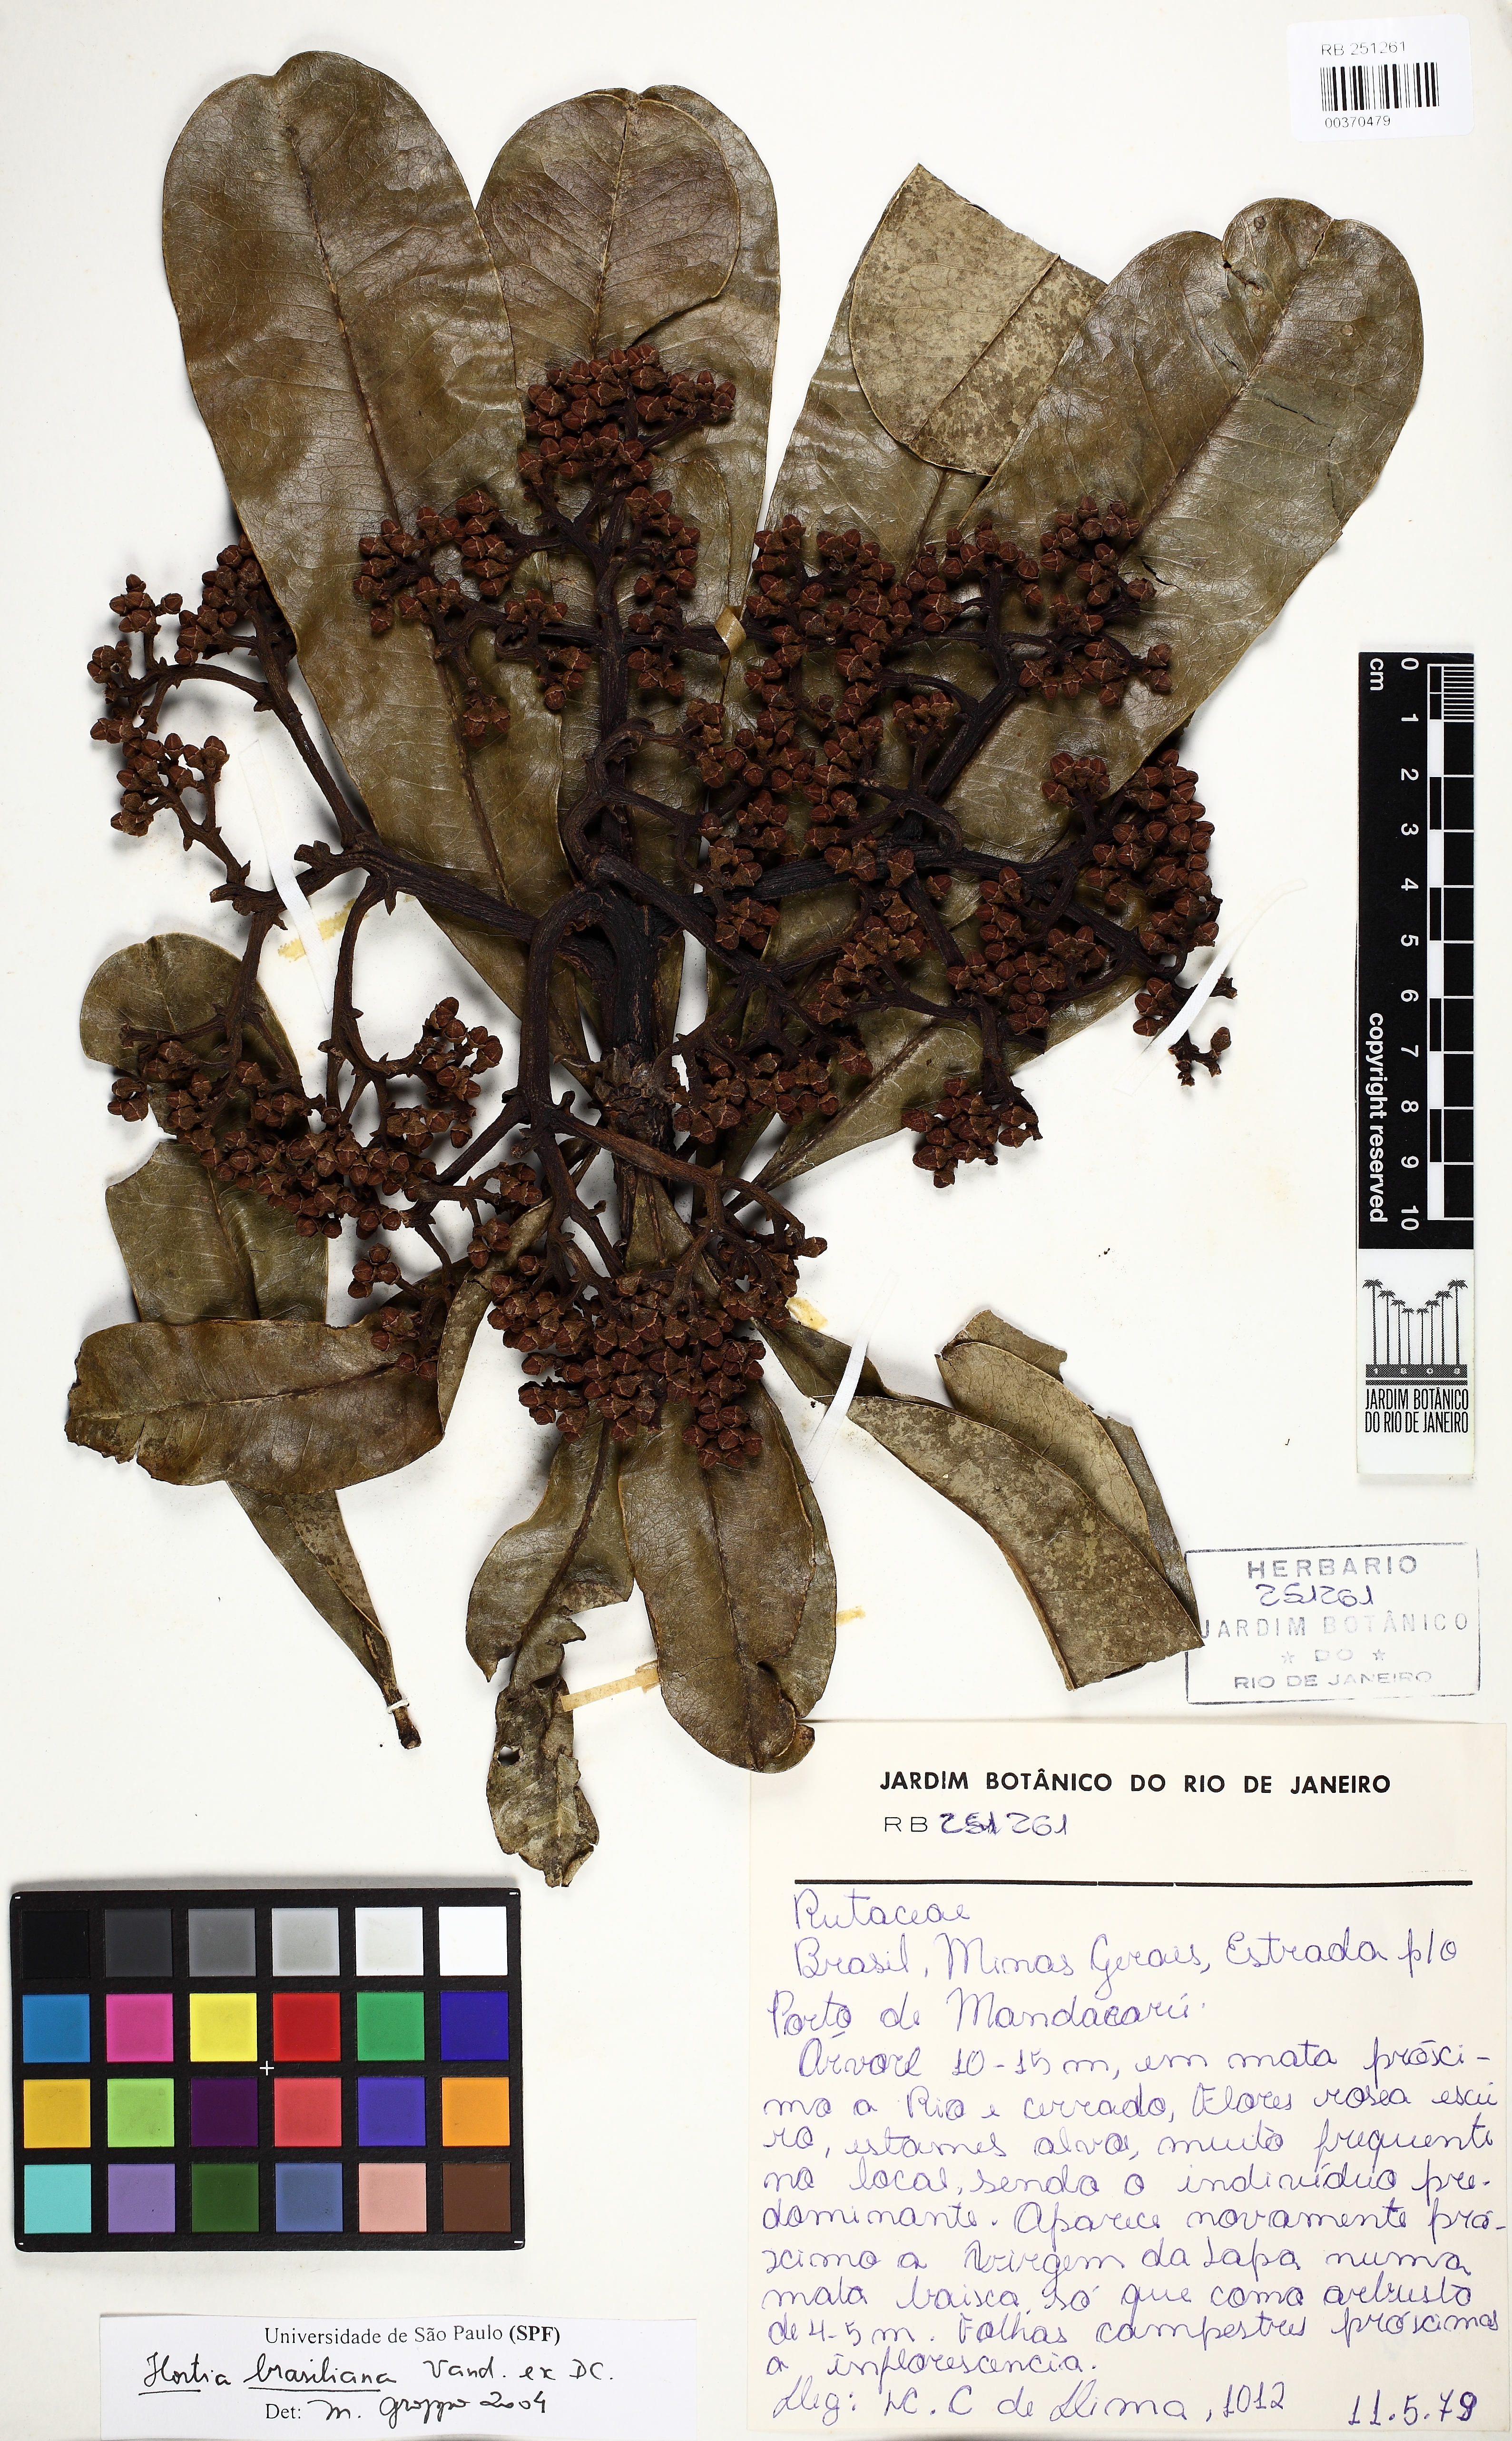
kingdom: Plantae
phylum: Tracheophyta
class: Magnoliopsida
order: Sapindales
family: Rutaceae
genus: Hortia
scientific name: Hortia brasiliana
